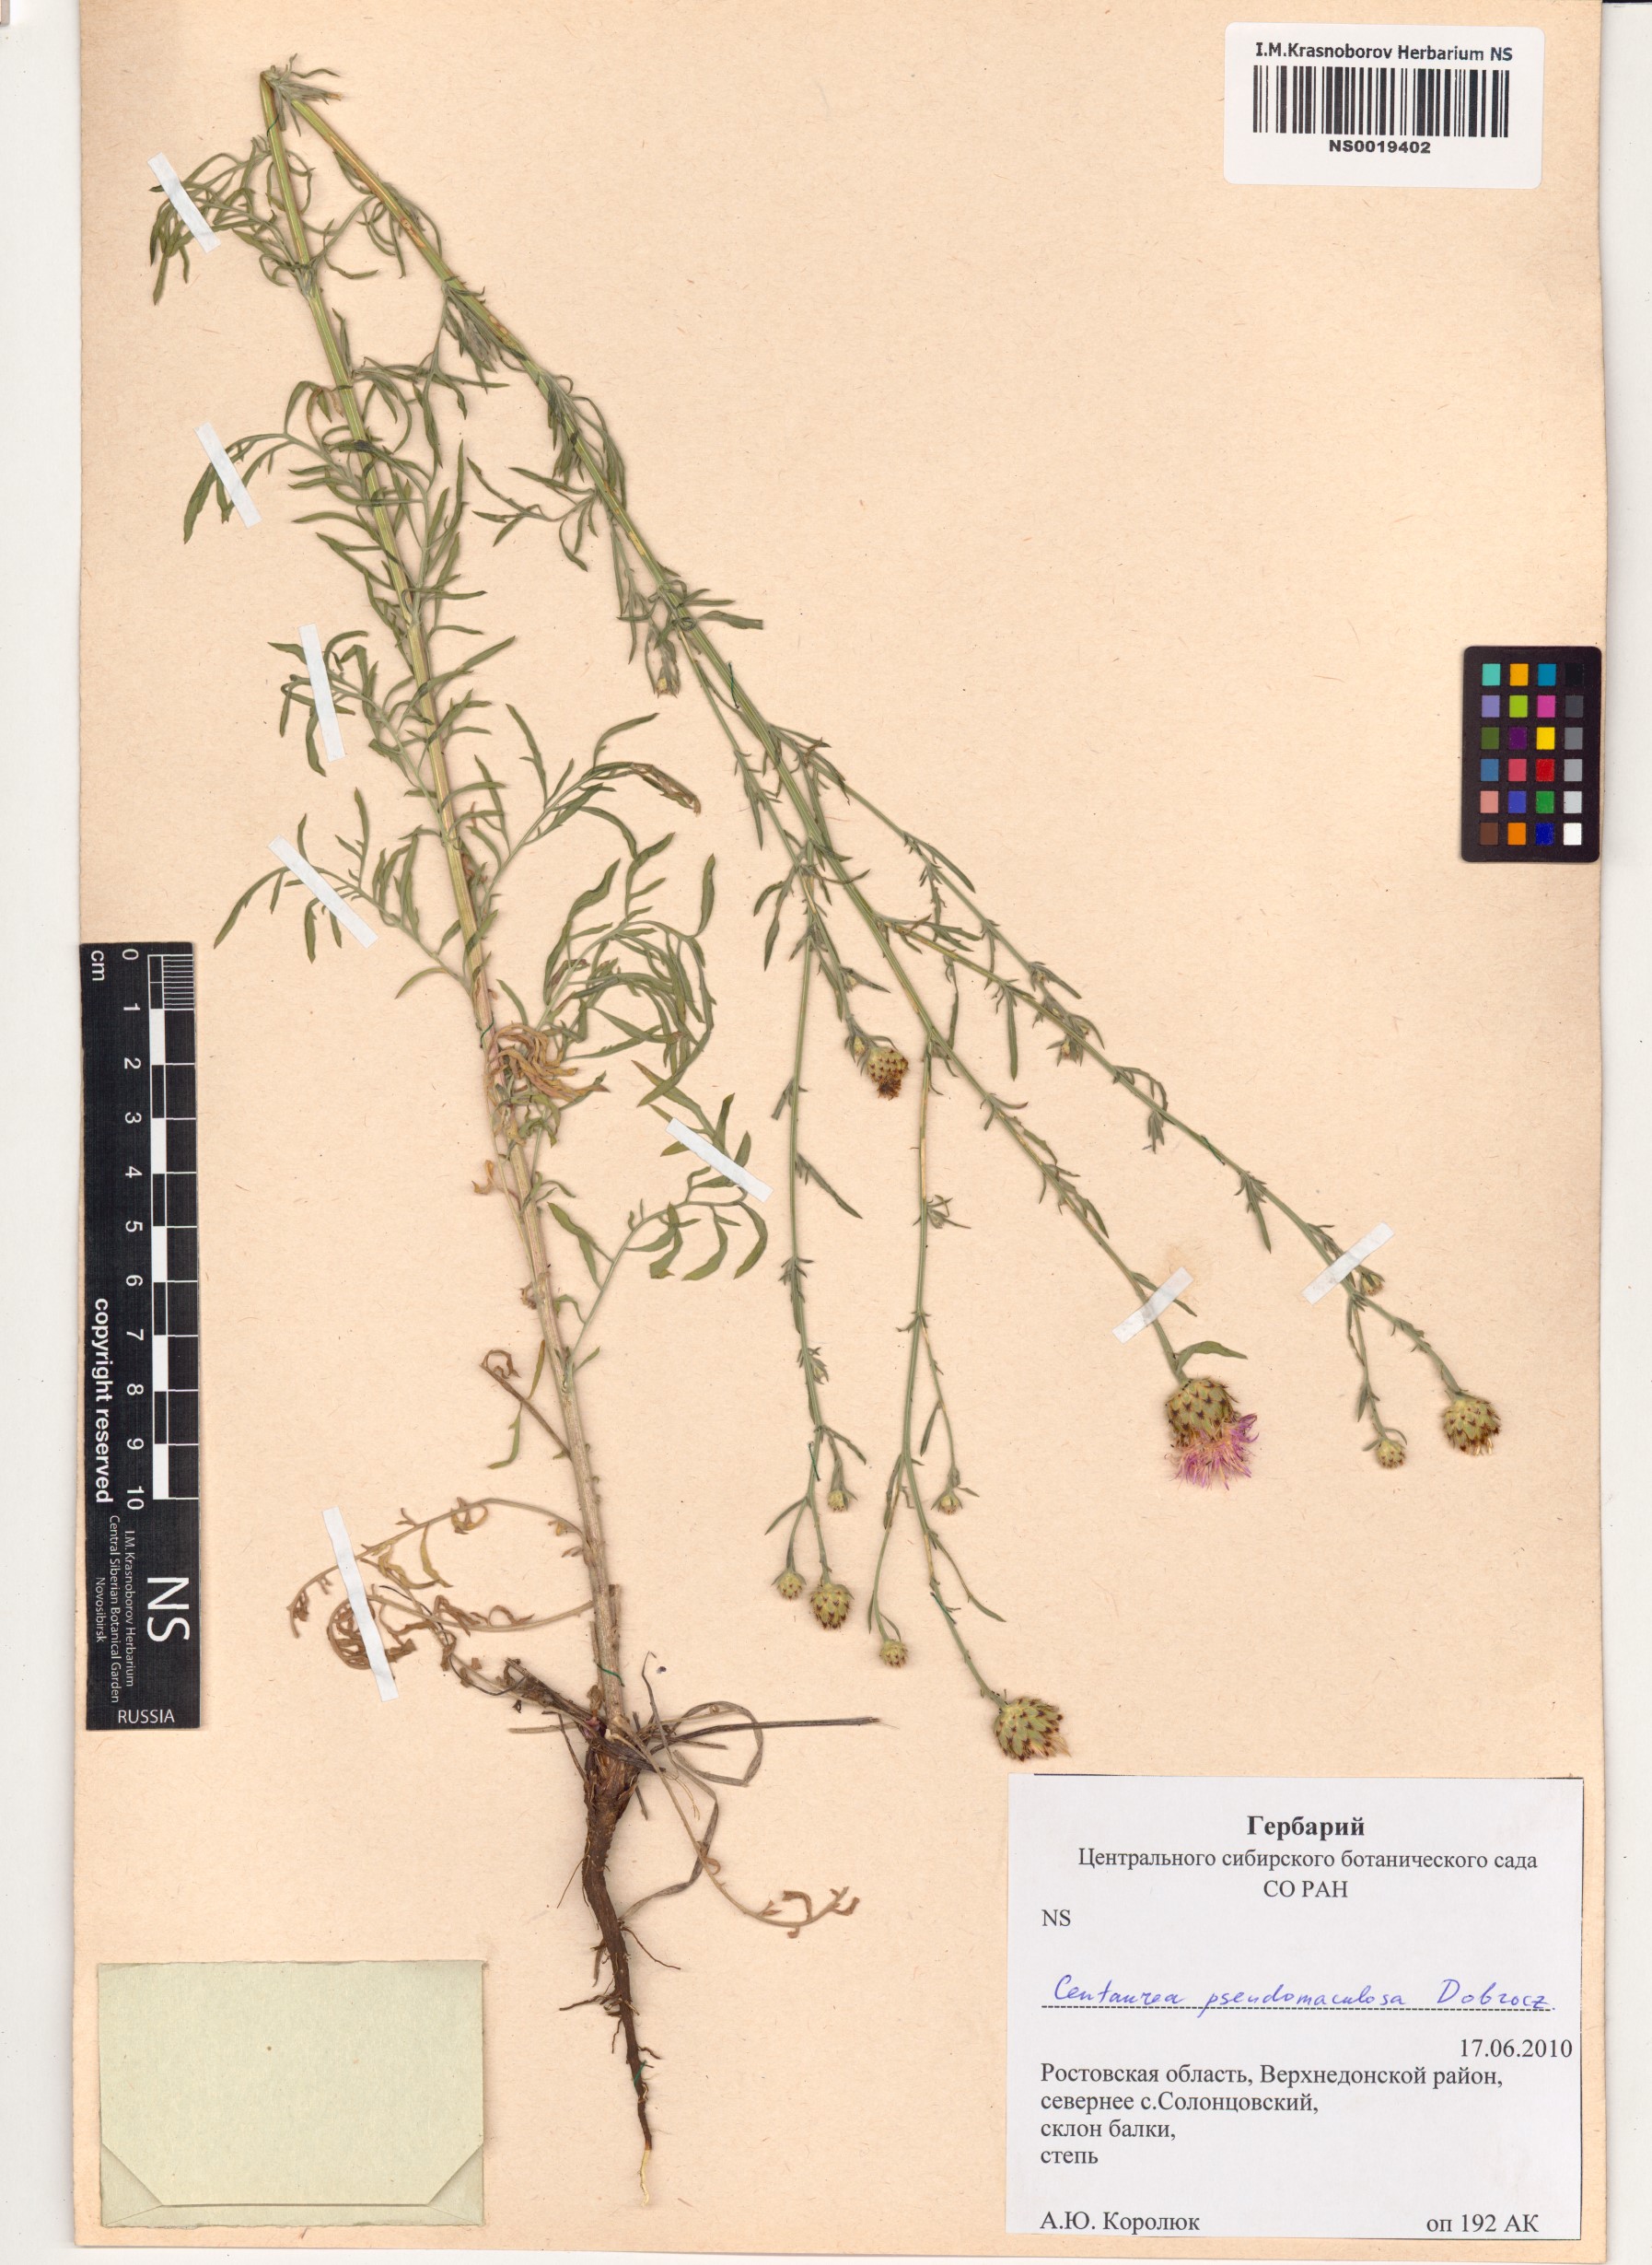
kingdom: Plantae
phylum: Tracheophyta
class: Magnoliopsida
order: Asterales
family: Asteraceae
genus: Centaurea
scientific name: Centaurea pseudomaculosa
